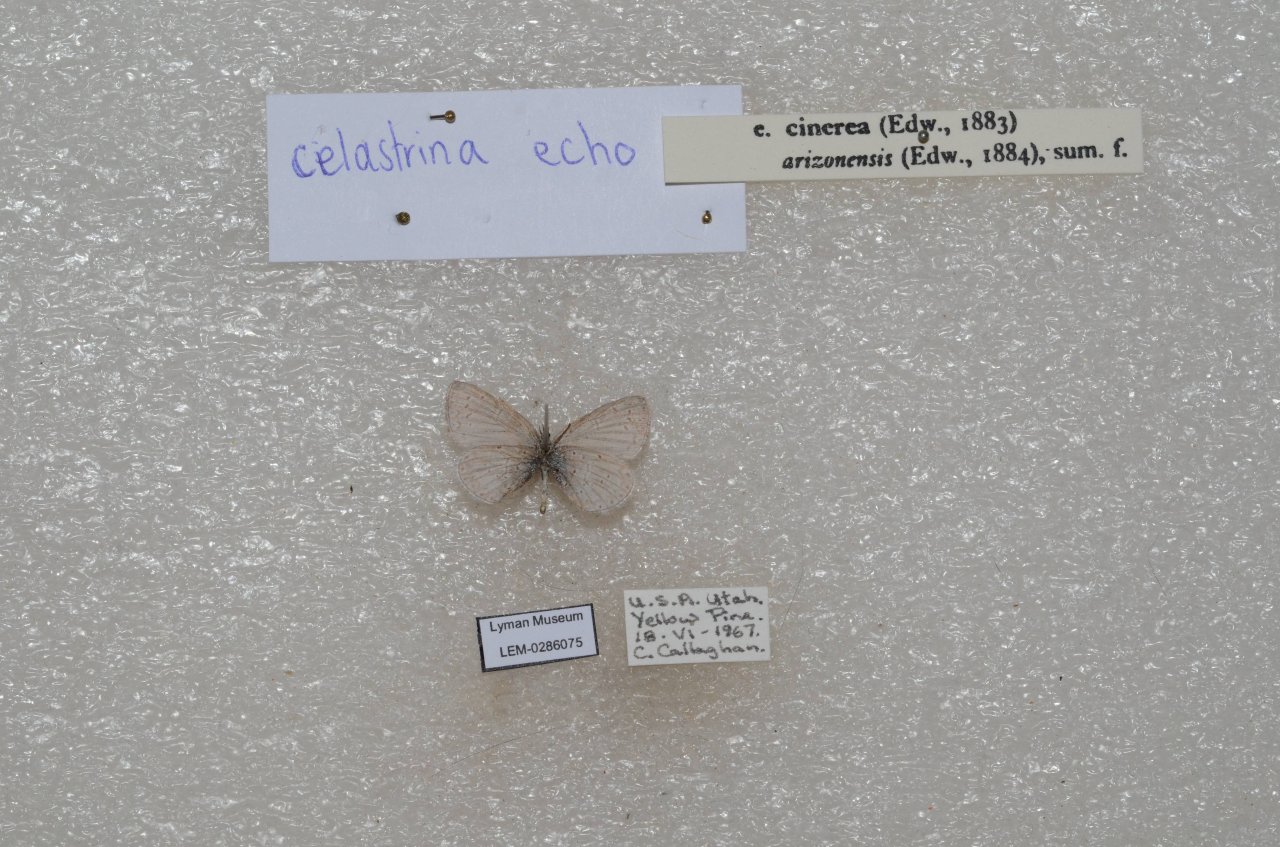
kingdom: Animalia
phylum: Arthropoda
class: Insecta
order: Lepidoptera
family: Lycaenidae
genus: Celastrina
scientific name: Celastrina ladon
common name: Echo Azure
